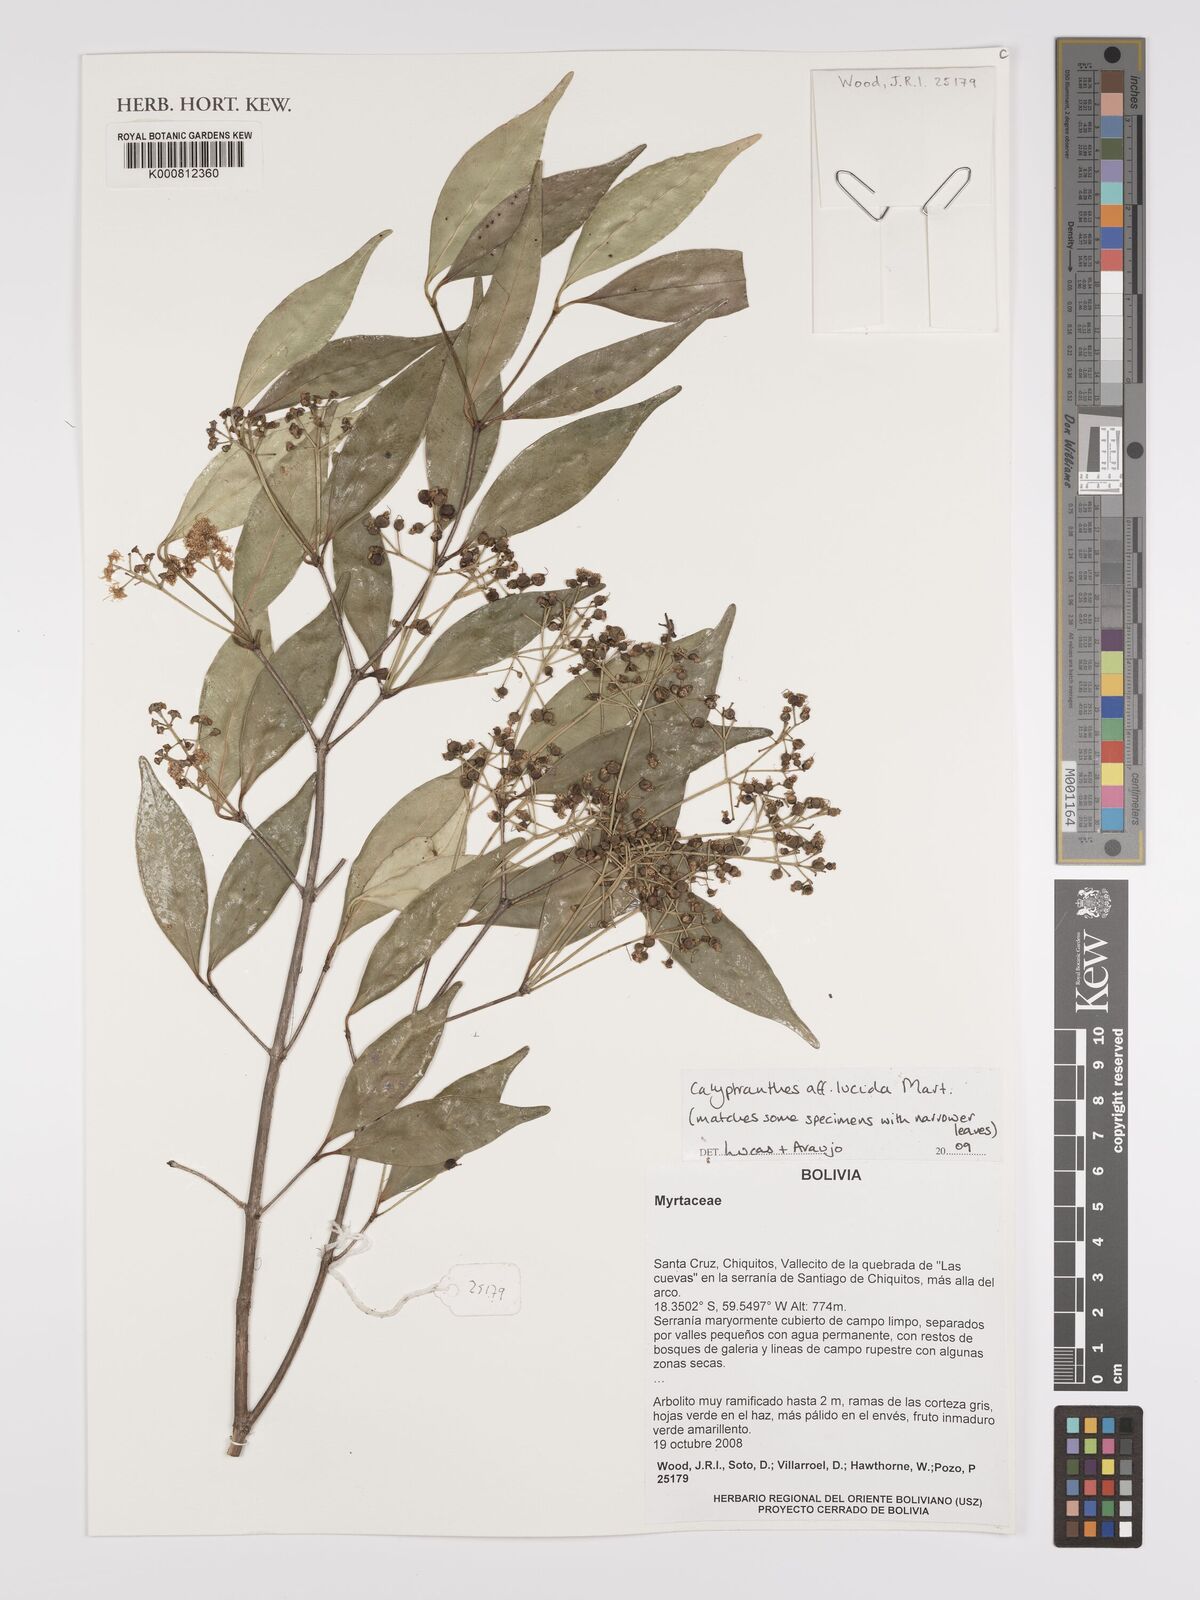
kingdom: Plantae
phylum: Tracheophyta
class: Magnoliopsida
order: Myrtales
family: Myrtaceae
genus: Myrcia
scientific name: Myrcia neolucida
